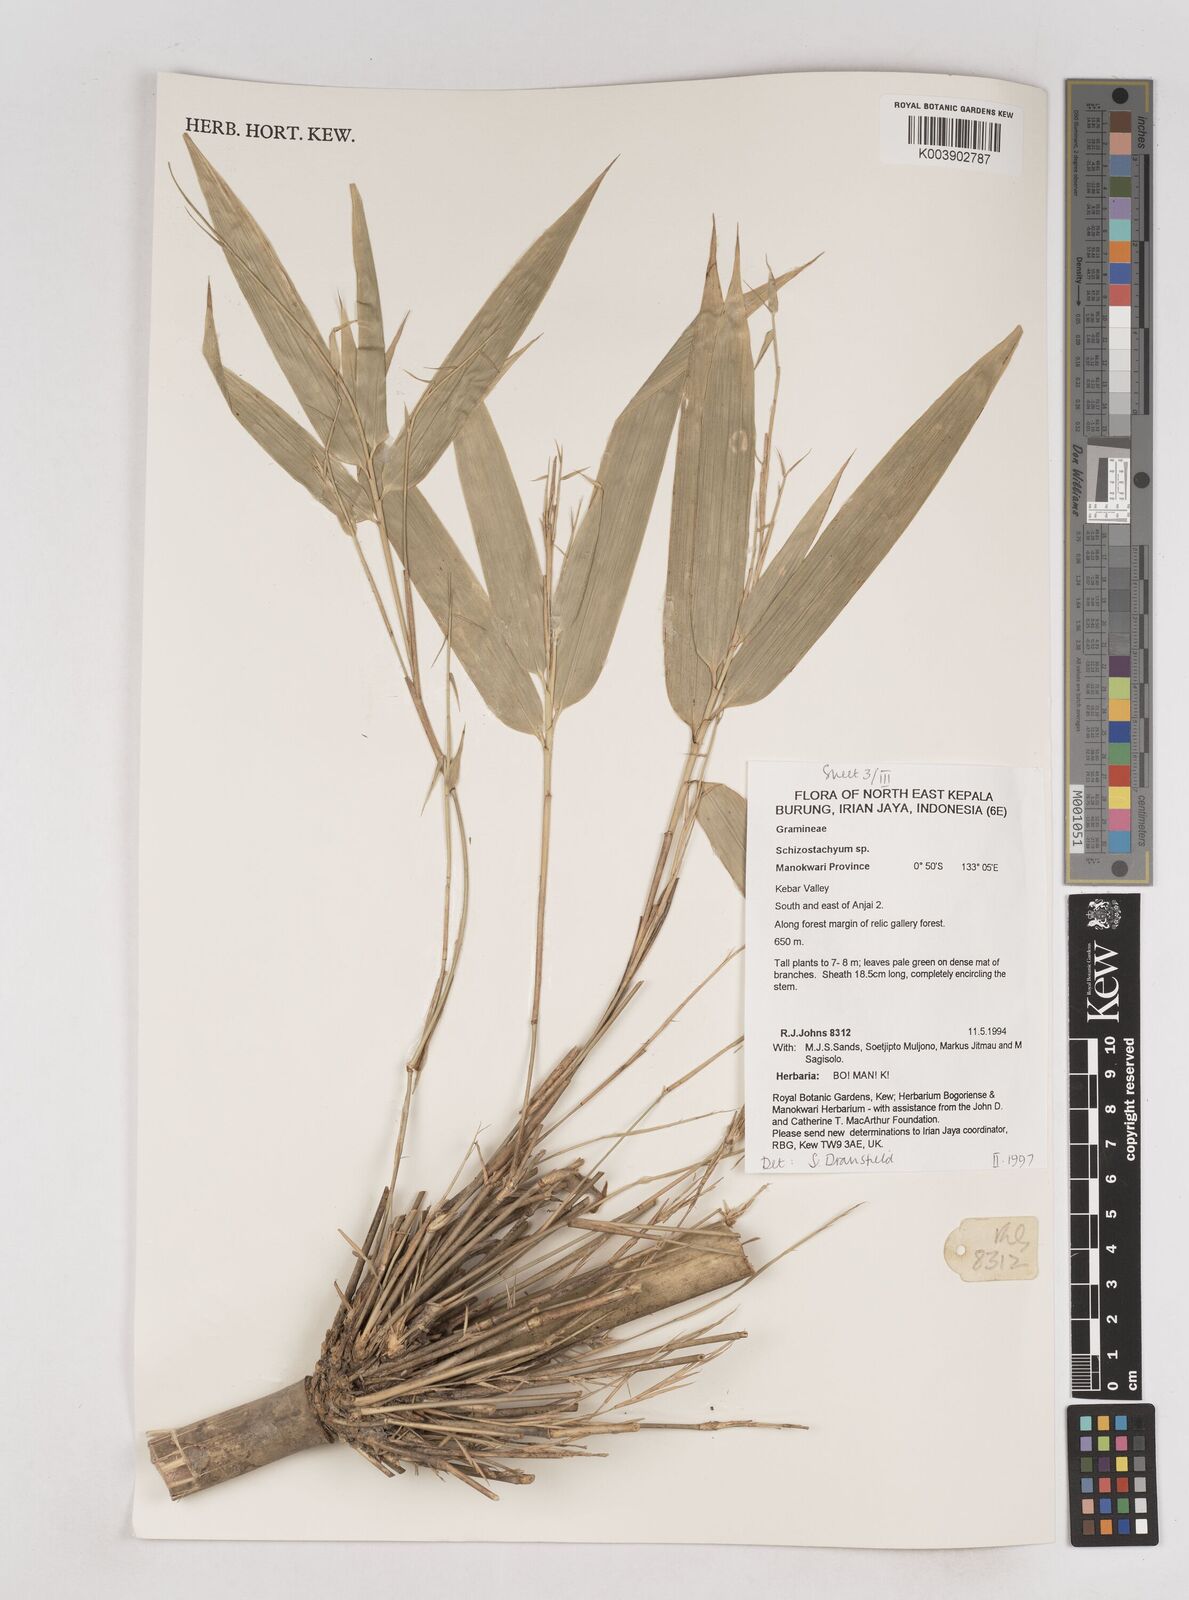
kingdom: Plantae
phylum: Tracheophyta
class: Liliopsida
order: Poales
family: Poaceae
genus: Schizostachyum
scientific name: Schizostachyum
